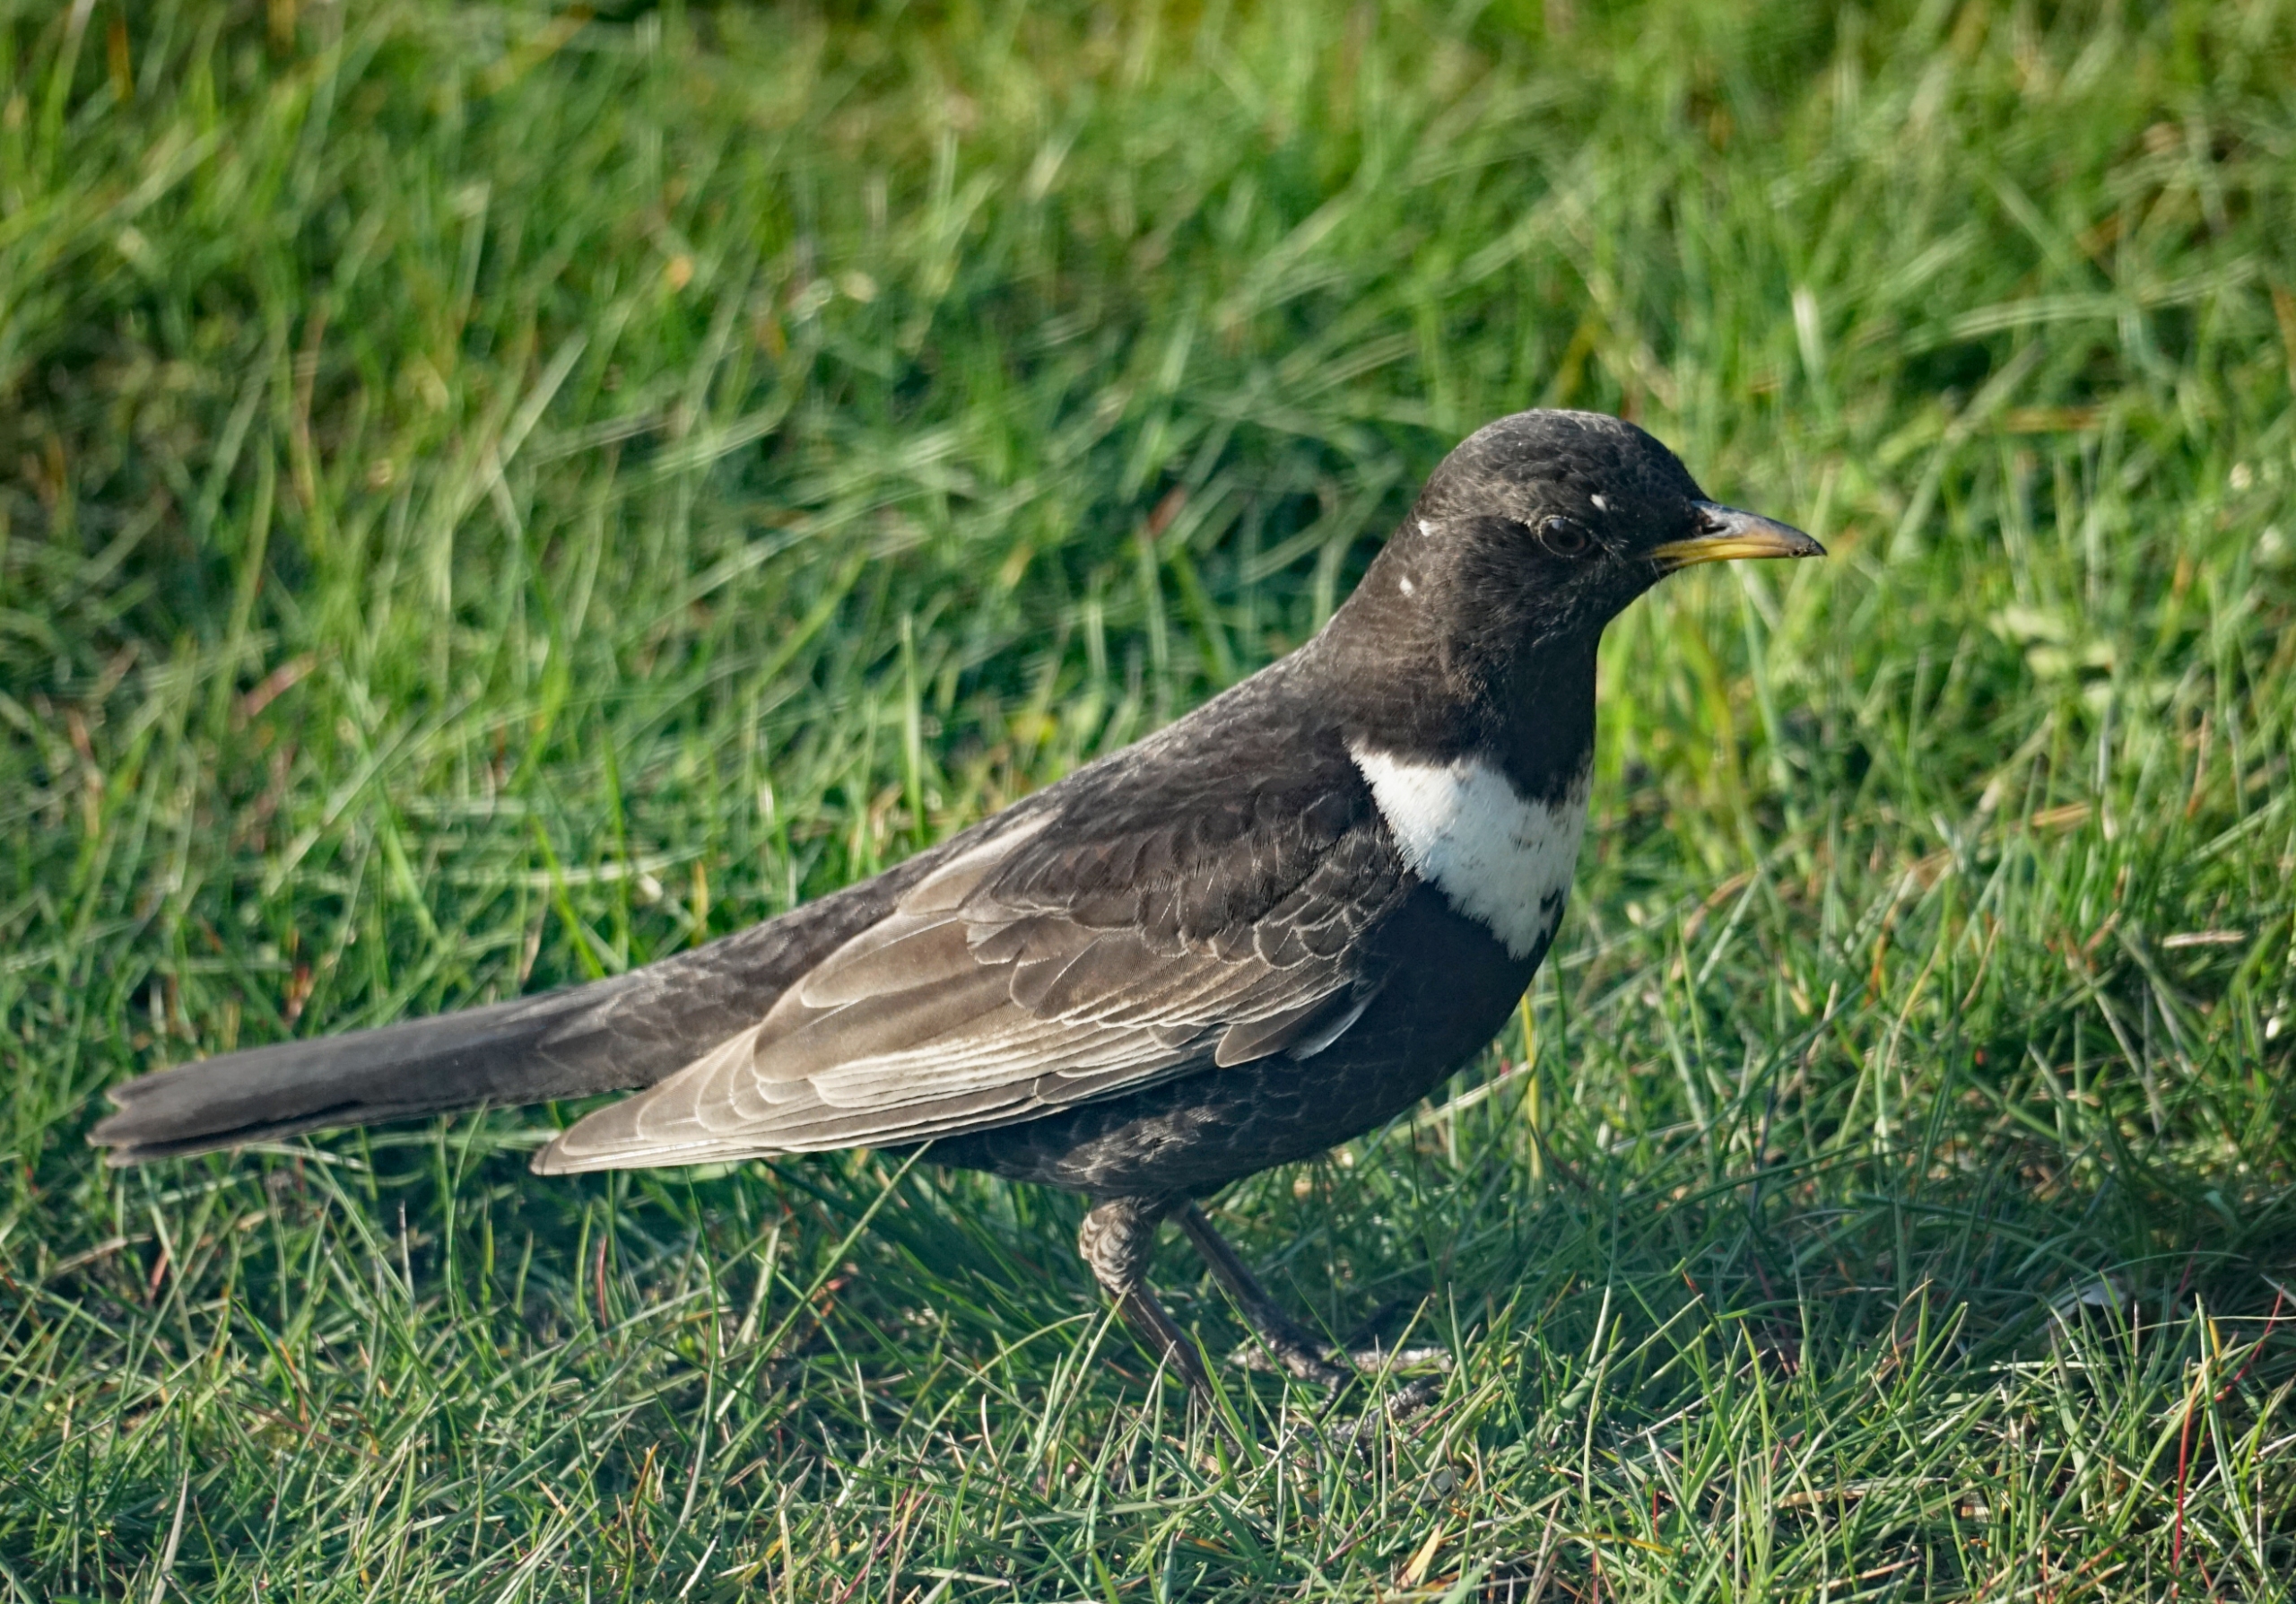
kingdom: Animalia
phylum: Chordata
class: Aves
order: Passeriformes
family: Turdidae
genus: Turdus
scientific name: Turdus torquatus
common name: Ringdrossel
